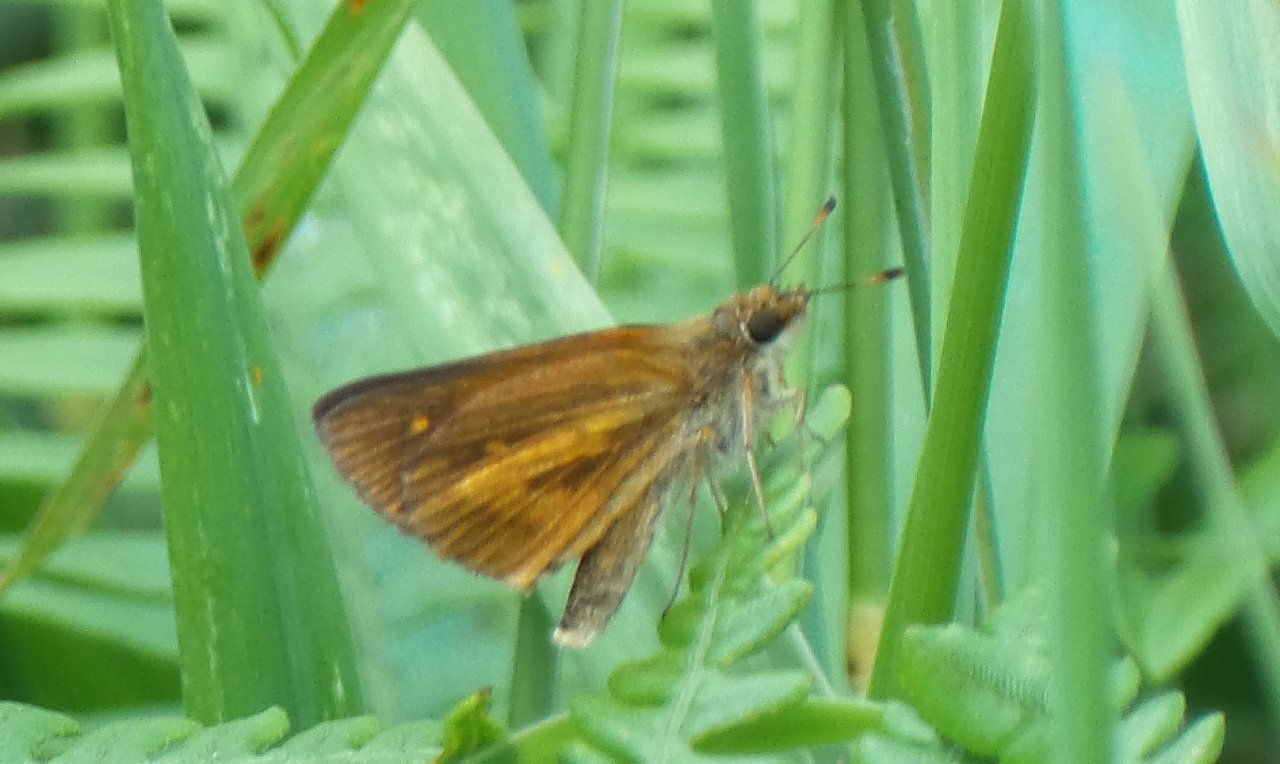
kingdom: Animalia
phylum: Arthropoda
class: Insecta
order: Lepidoptera
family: Hesperiidae
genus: Poanes
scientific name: Poanes viator
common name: Broad-winged Skipper
